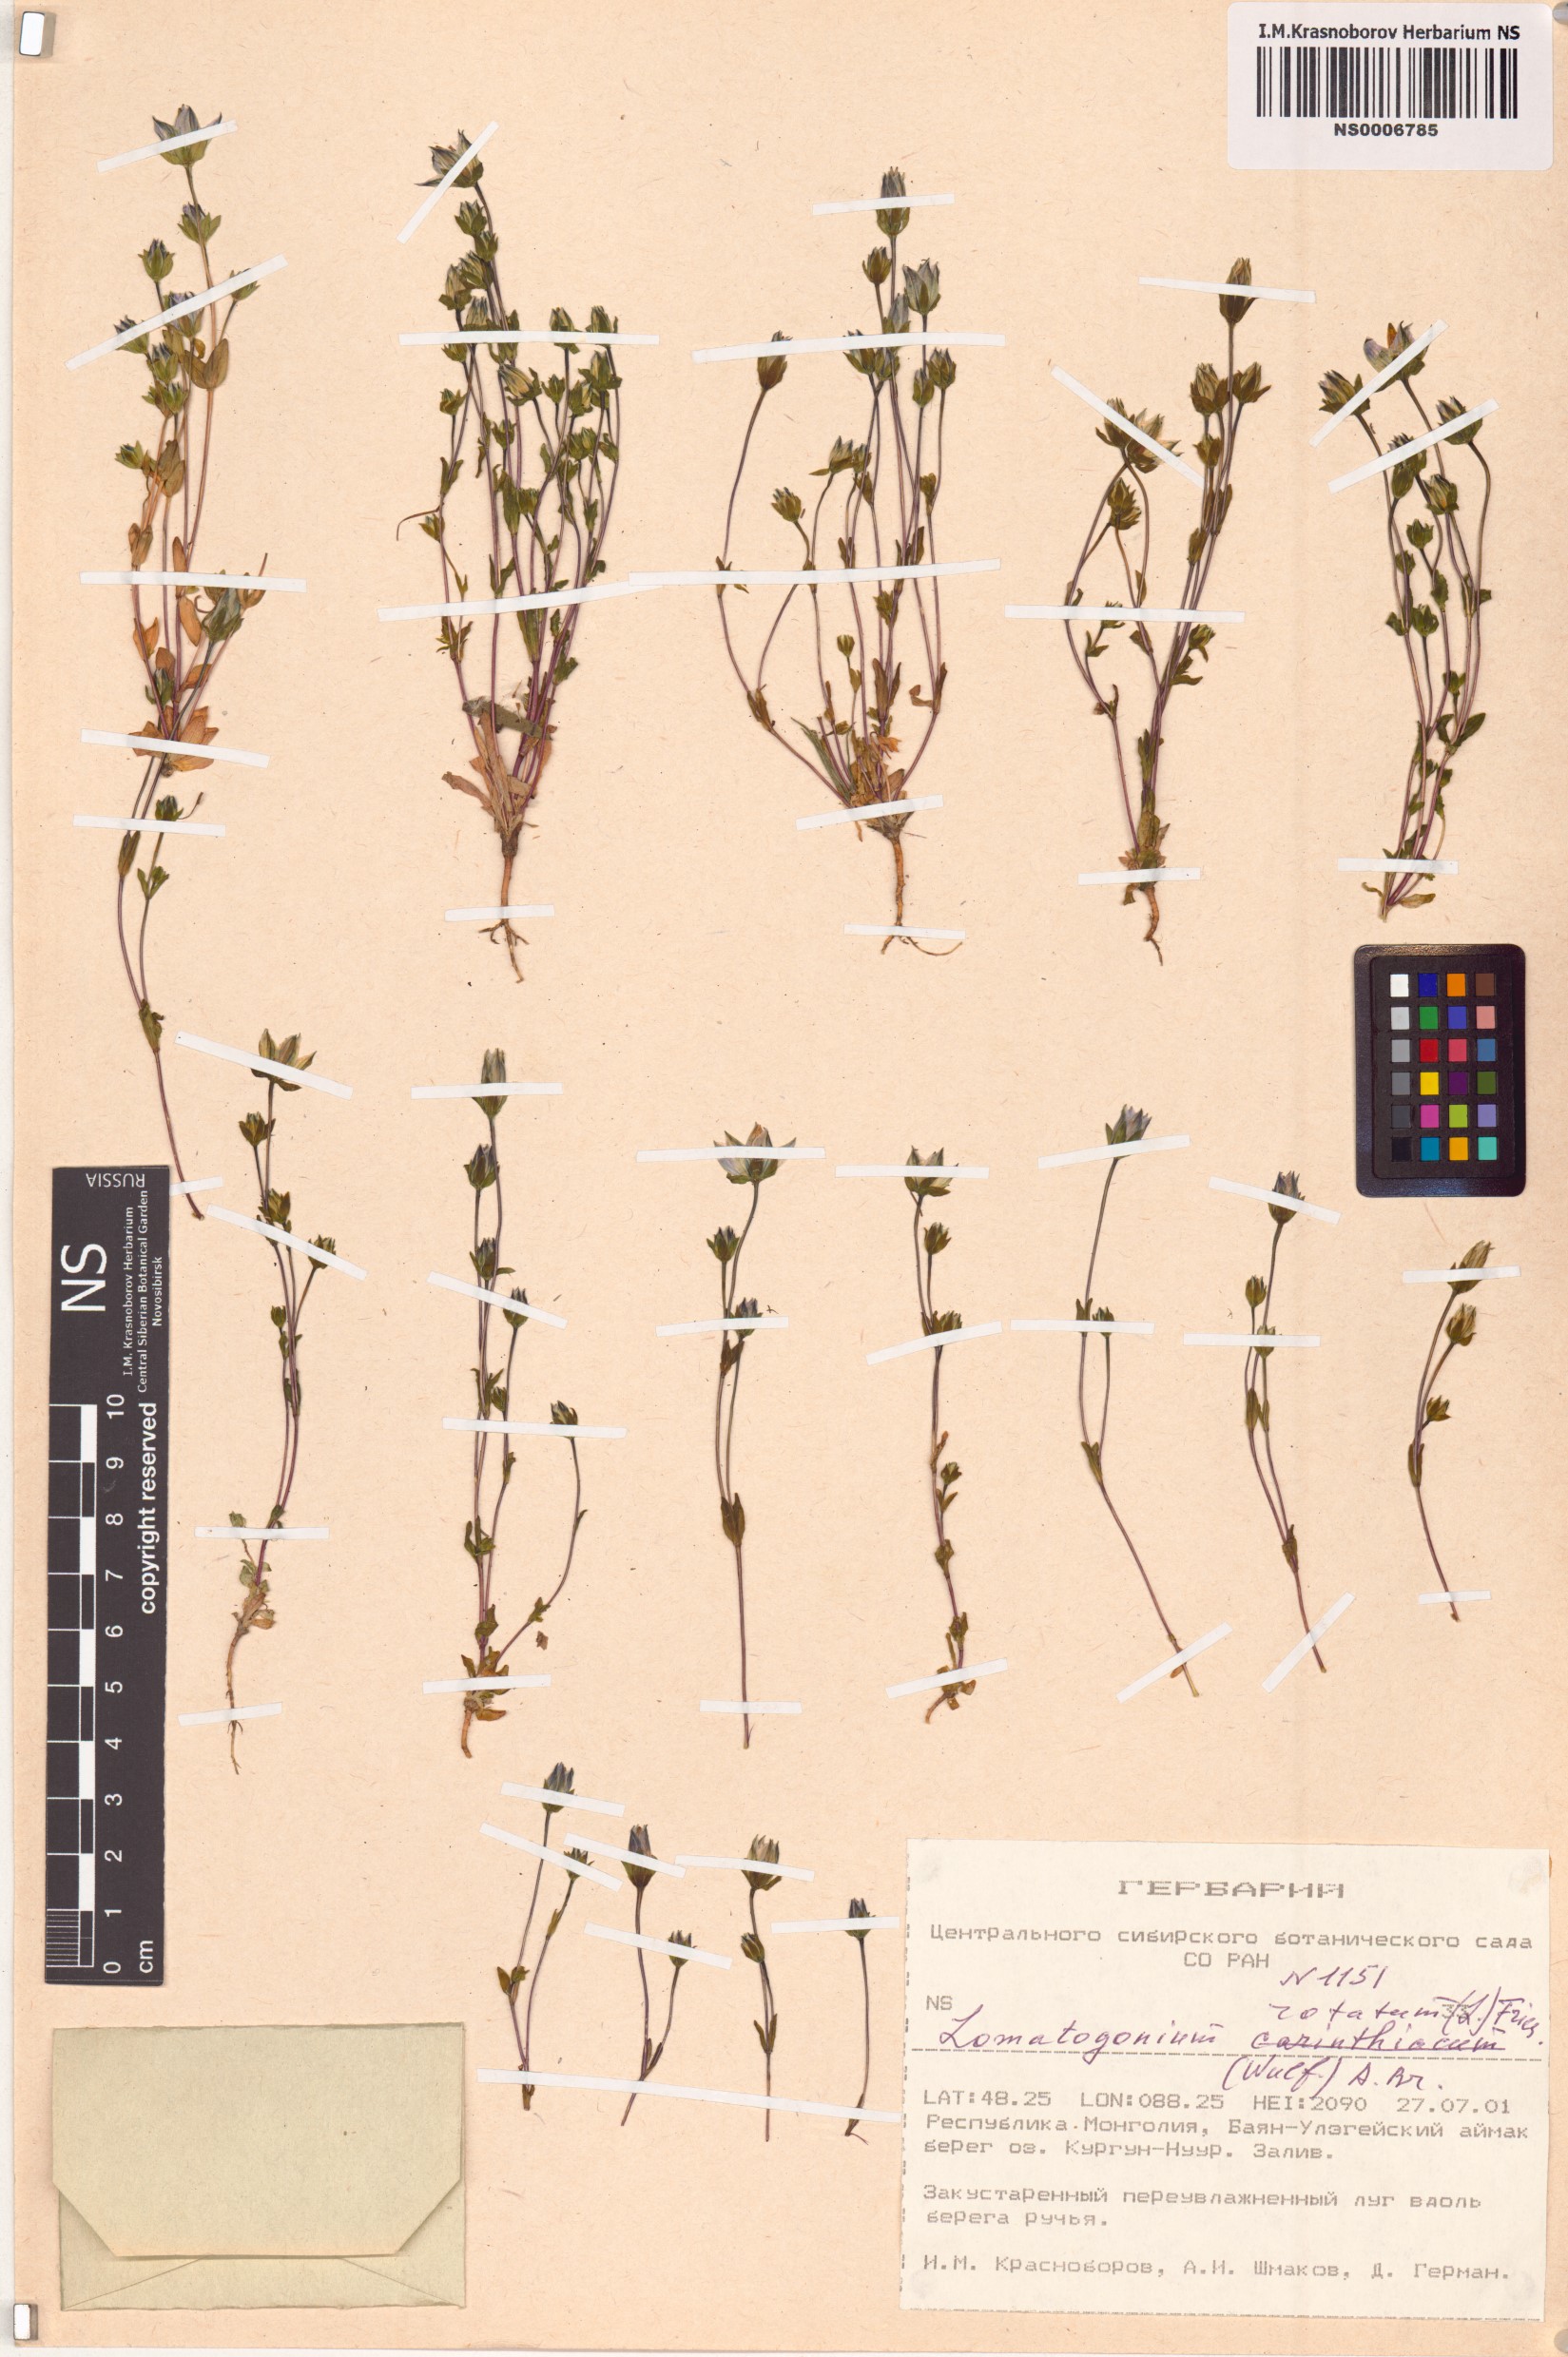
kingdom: Plantae
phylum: Tracheophyta
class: Magnoliopsida
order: Gentianales
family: Gentianaceae
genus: Lomatogonium
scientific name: Lomatogonium rotatum
